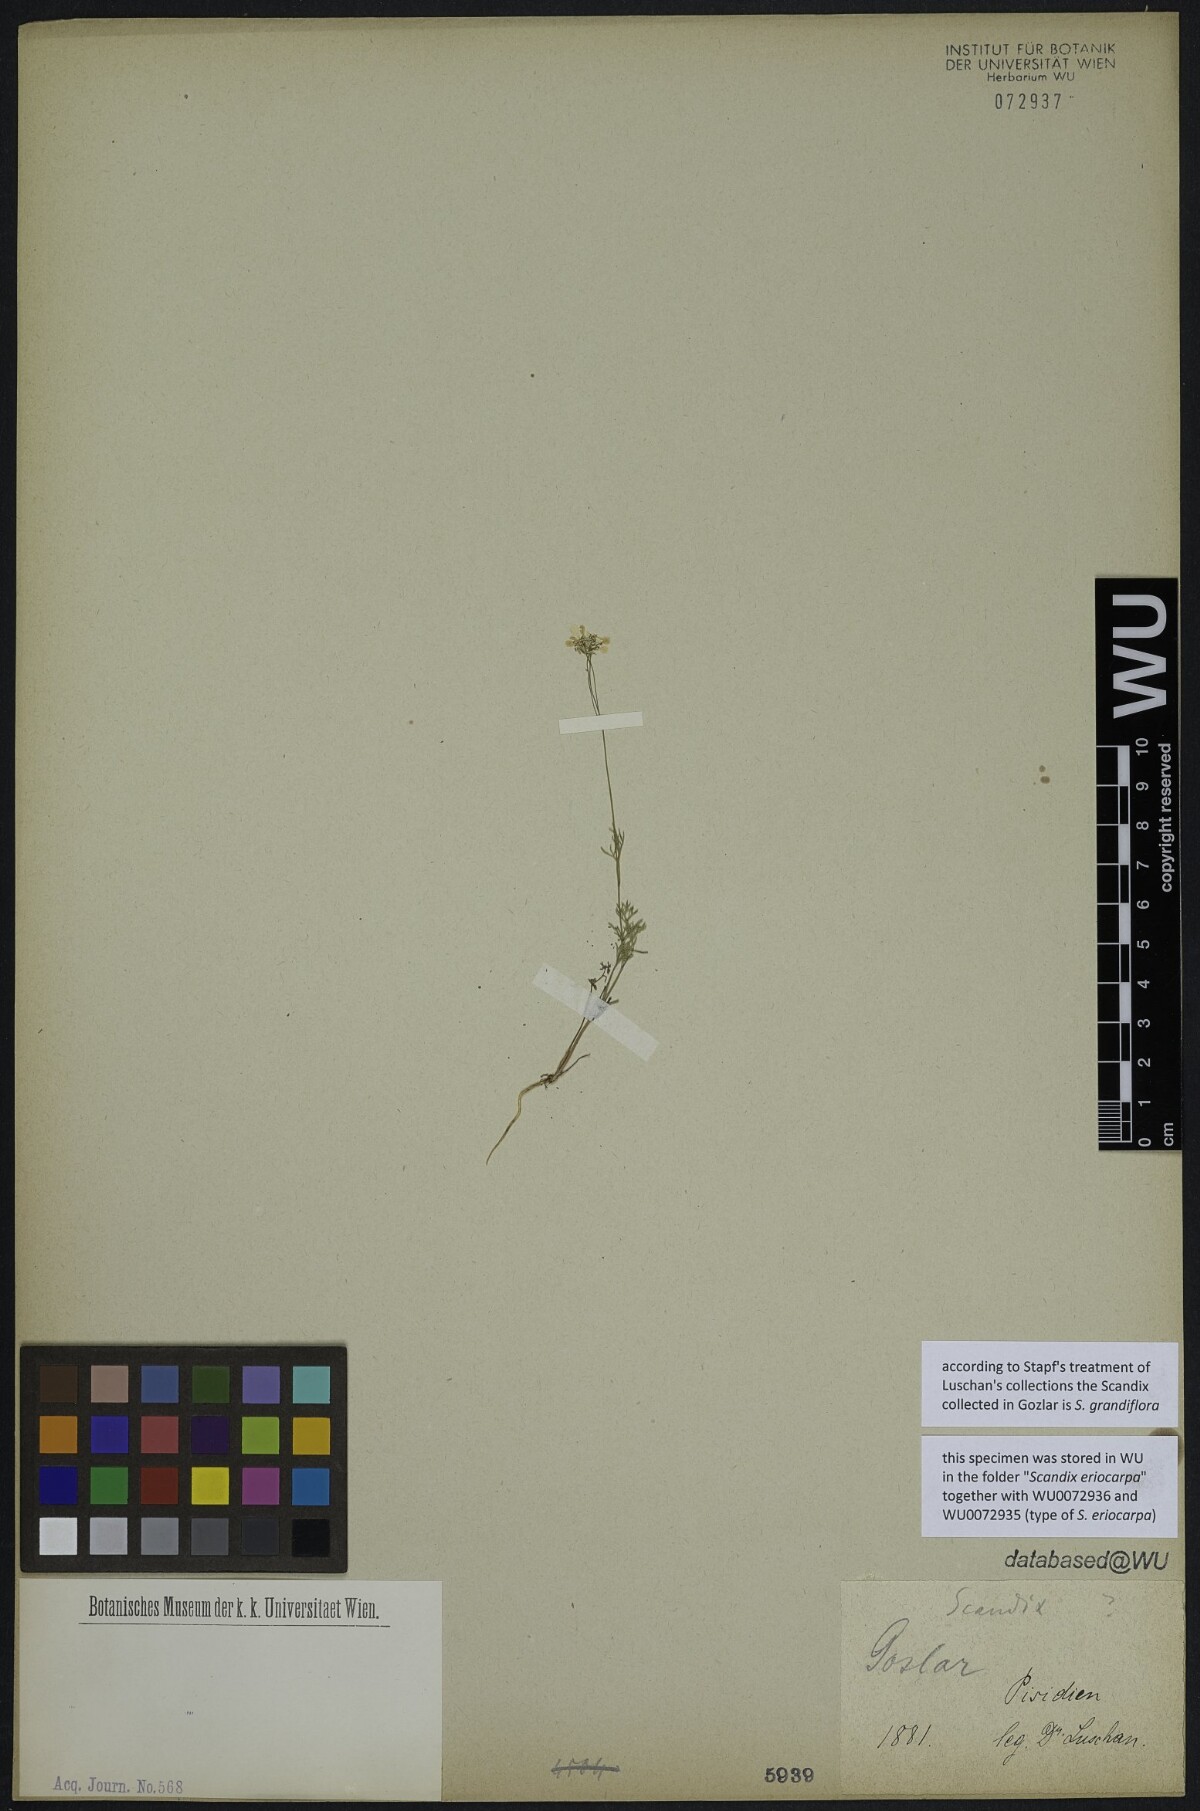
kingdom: Plantae
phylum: Tracheophyta
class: Magnoliopsida
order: Apiales
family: Apiaceae
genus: Scandix
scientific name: Scandix
